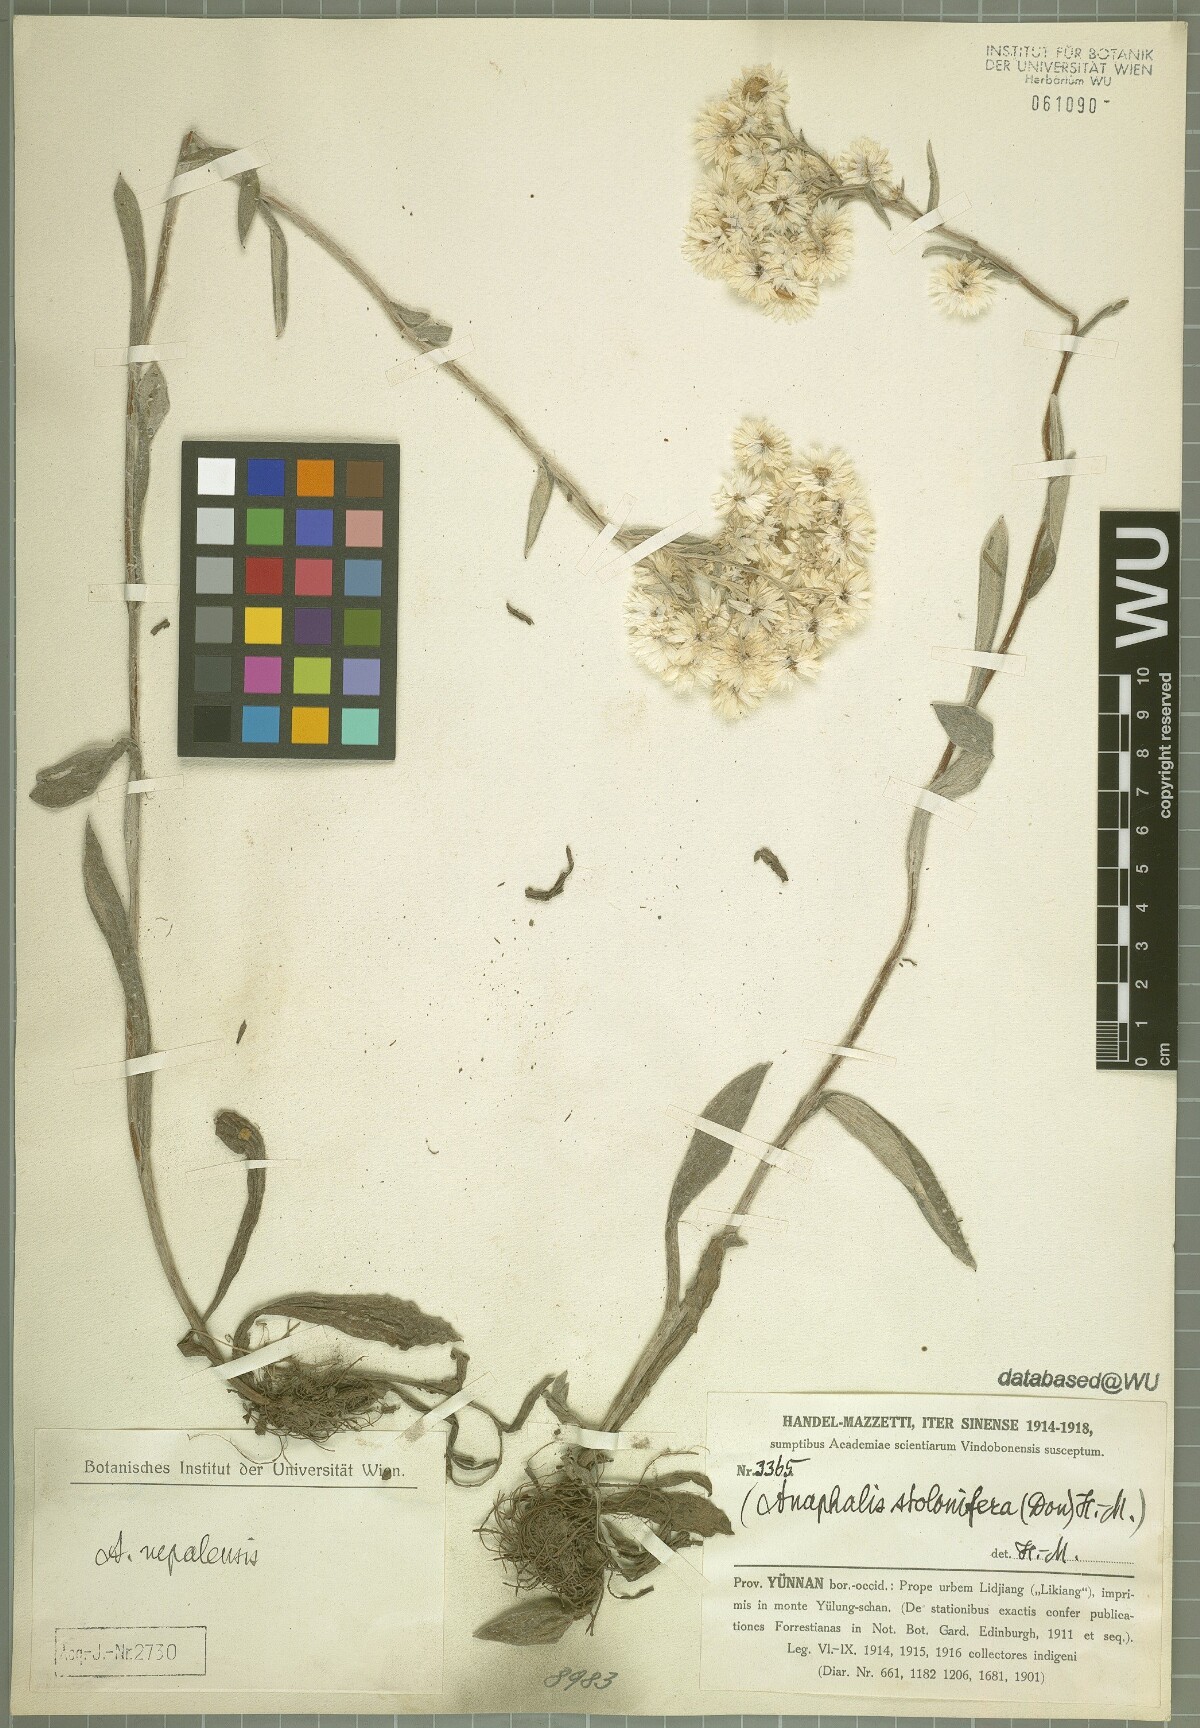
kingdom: Plantae
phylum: Tracheophyta
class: Magnoliopsida
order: Asterales
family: Asteraceae
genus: Anaphalis
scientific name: Anaphalis nepalensis
